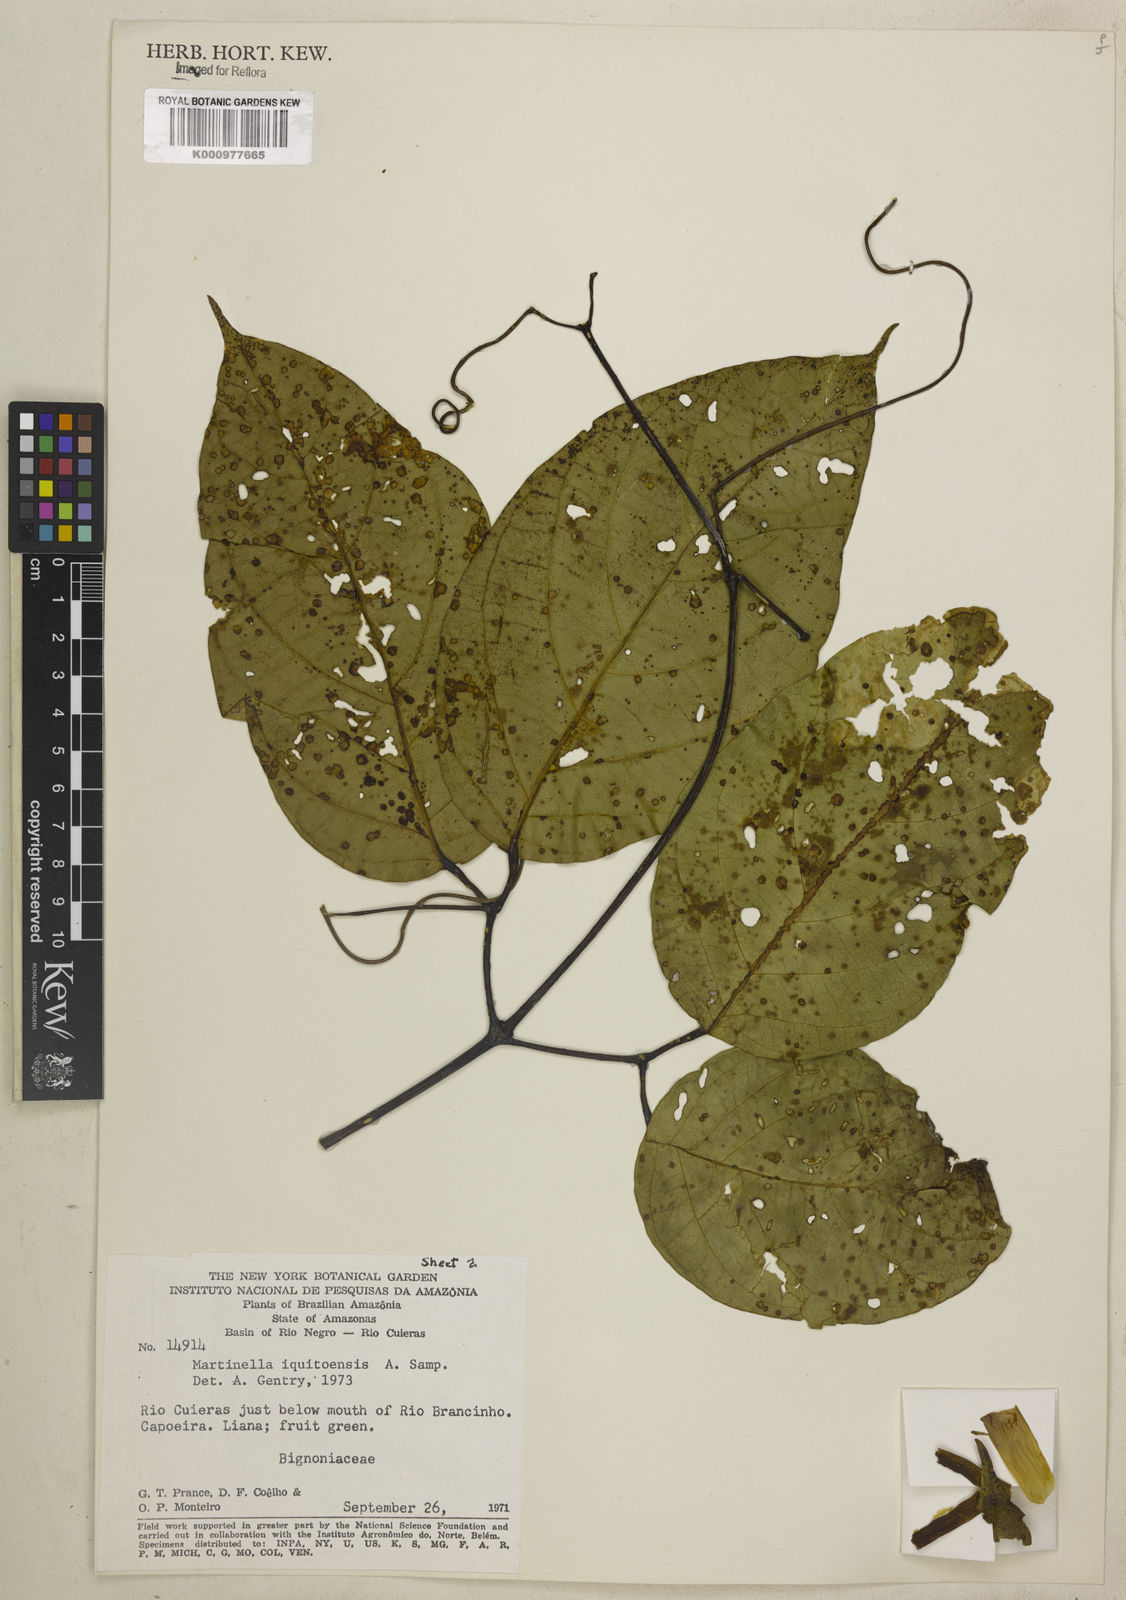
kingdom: Plantae
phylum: Tracheophyta
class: Magnoliopsida
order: Lamiales
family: Bignoniaceae
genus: Martinella
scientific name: Martinella iquitoensis
